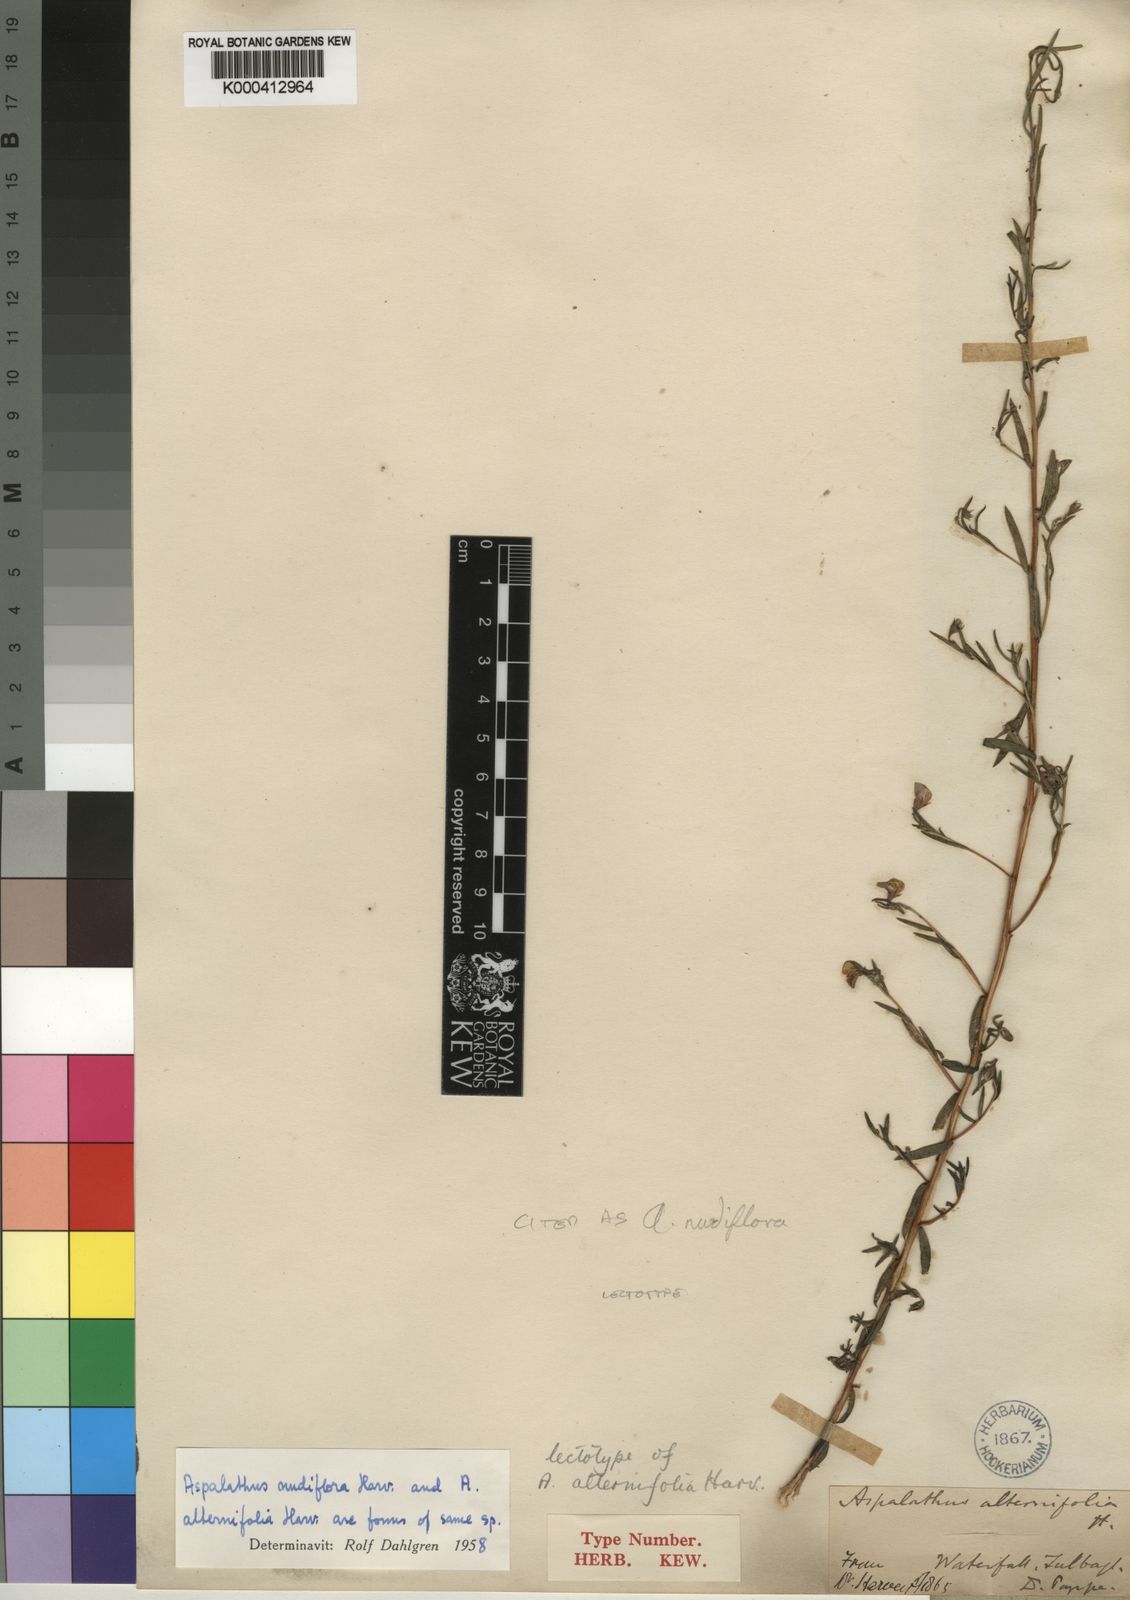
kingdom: Plantae
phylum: Tracheophyta
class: Magnoliopsida
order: Fabales
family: Fabaceae
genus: Aspalathus
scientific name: Aspalathus nudiflora
